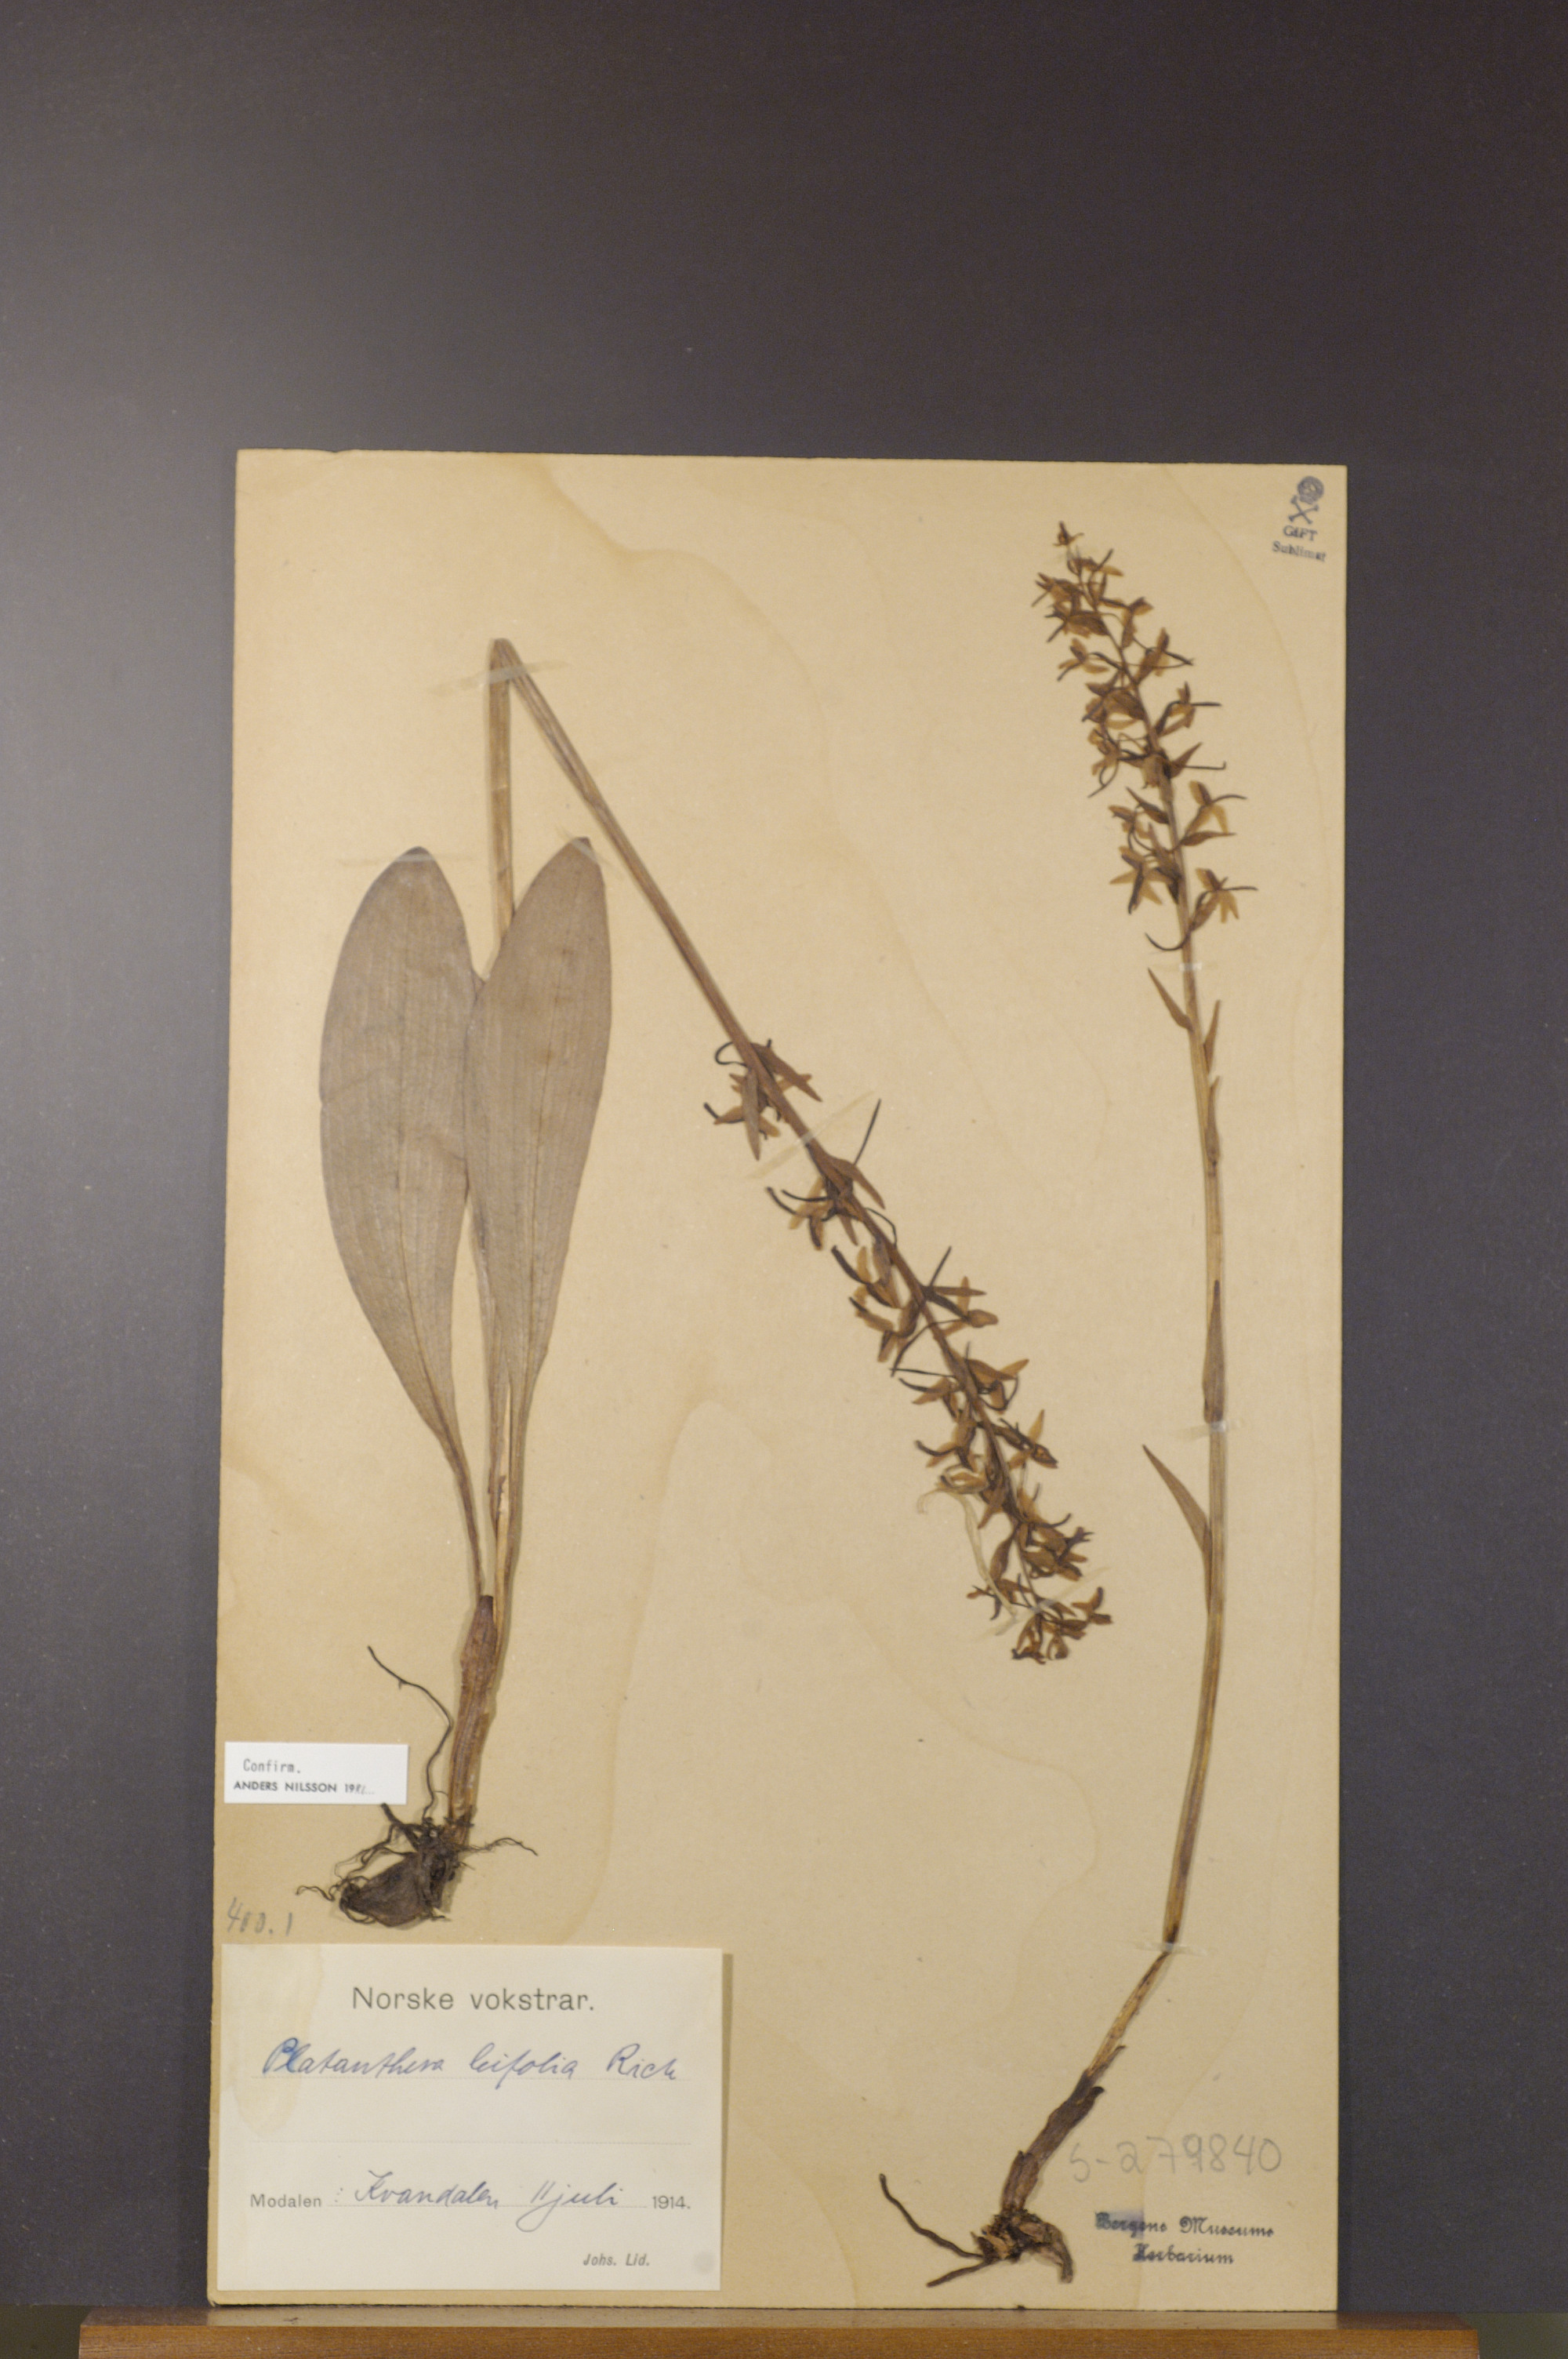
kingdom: Plantae
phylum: Tracheophyta
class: Liliopsida
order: Asparagales
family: Orchidaceae
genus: Platanthera
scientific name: Platanthera bifolia
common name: Lesser butterfly-orchid
